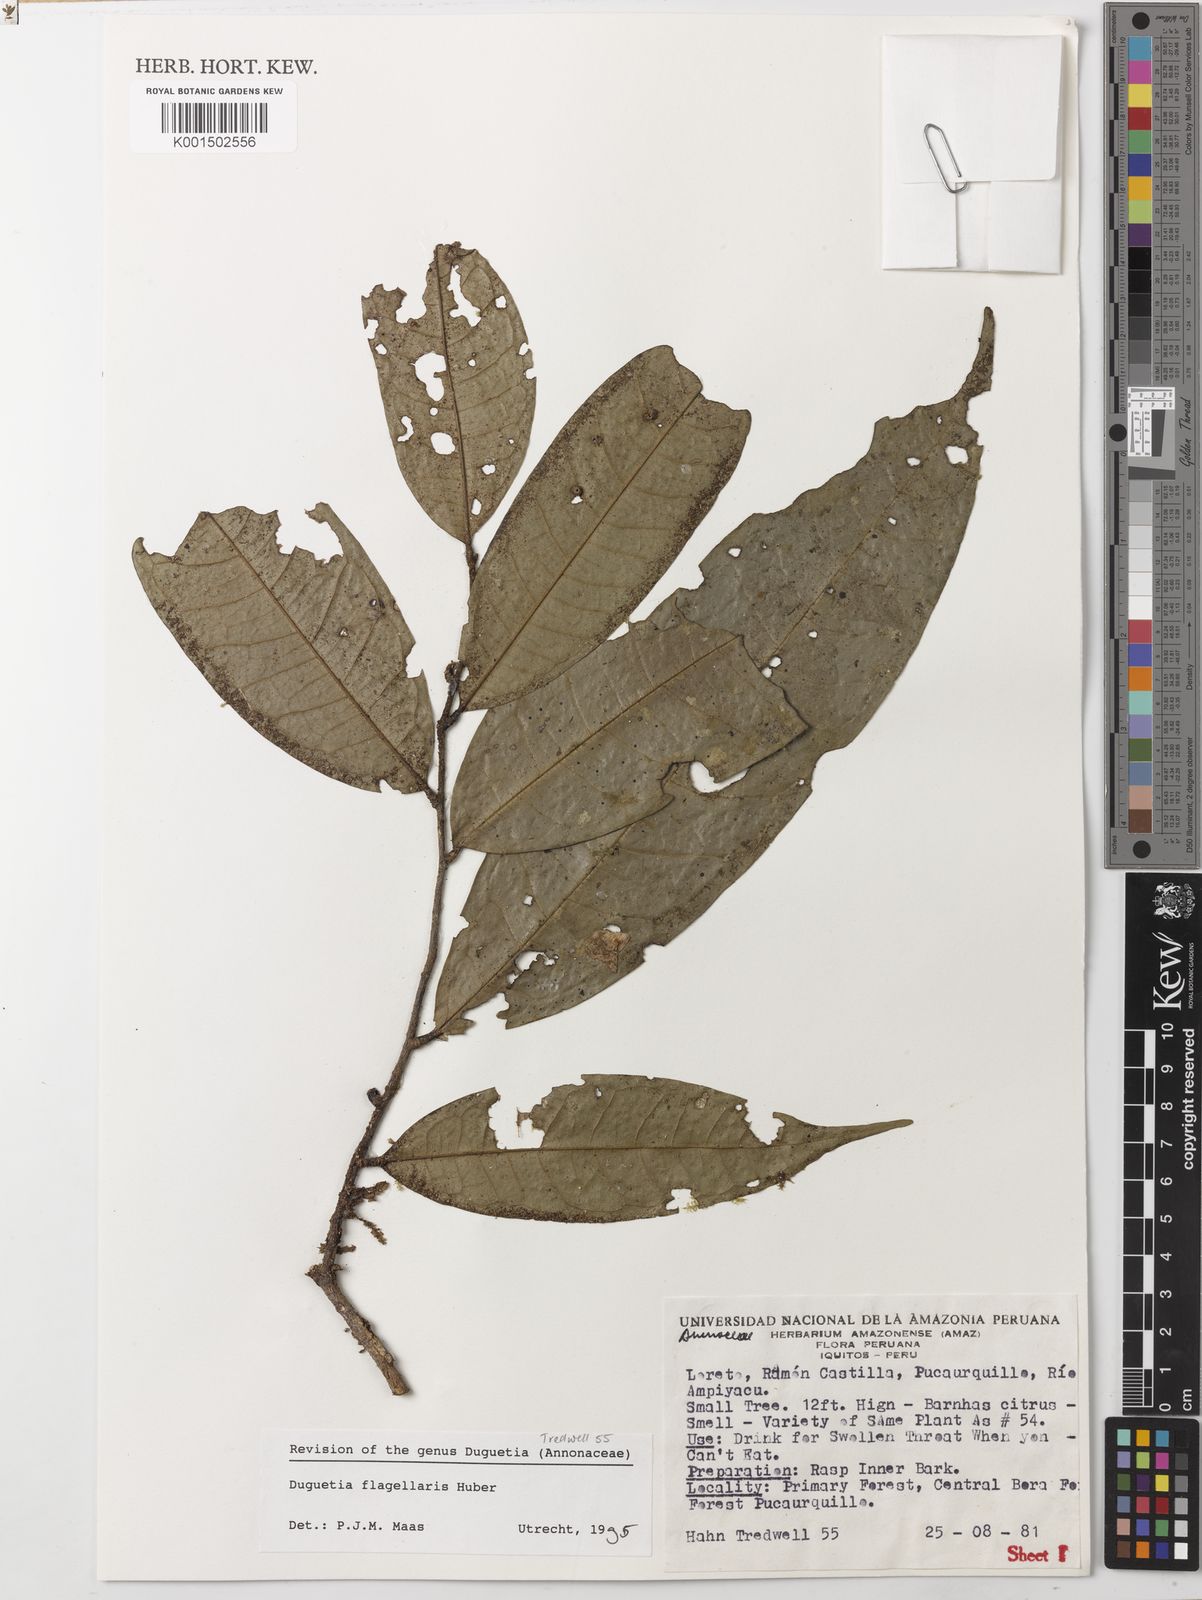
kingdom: Plantae
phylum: Tracheophyta
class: Magnoliopsida
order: Magnoliales
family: Annonaceae
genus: Duguetia
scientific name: Duguetia flagellaris
